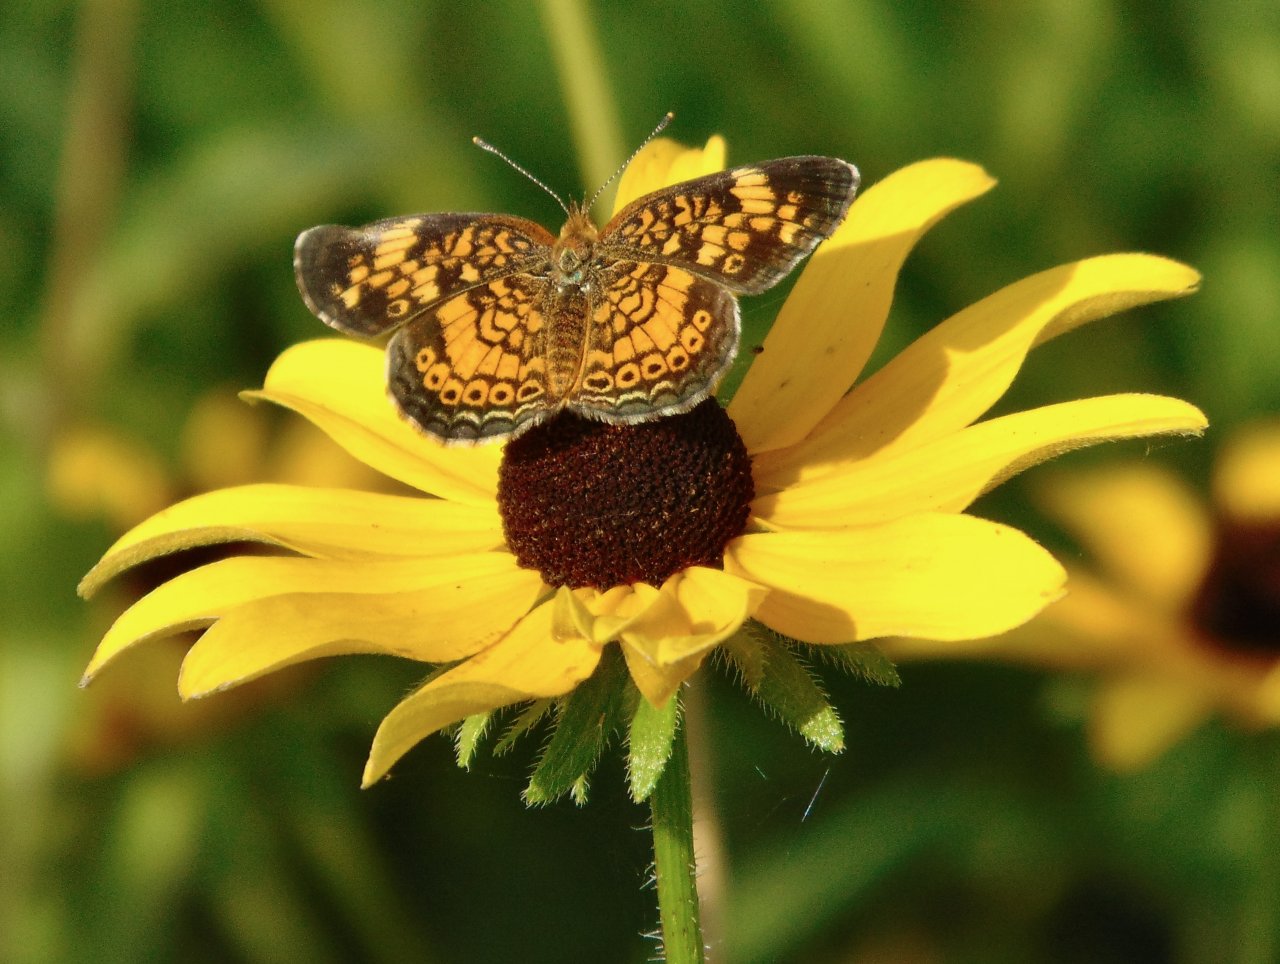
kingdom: Animalia
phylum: Arthropoda
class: Insecta
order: Lepidoptera
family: Nymphalidae
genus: Phyciodes
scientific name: Phyciodes tharos
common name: Pearl Crescent
